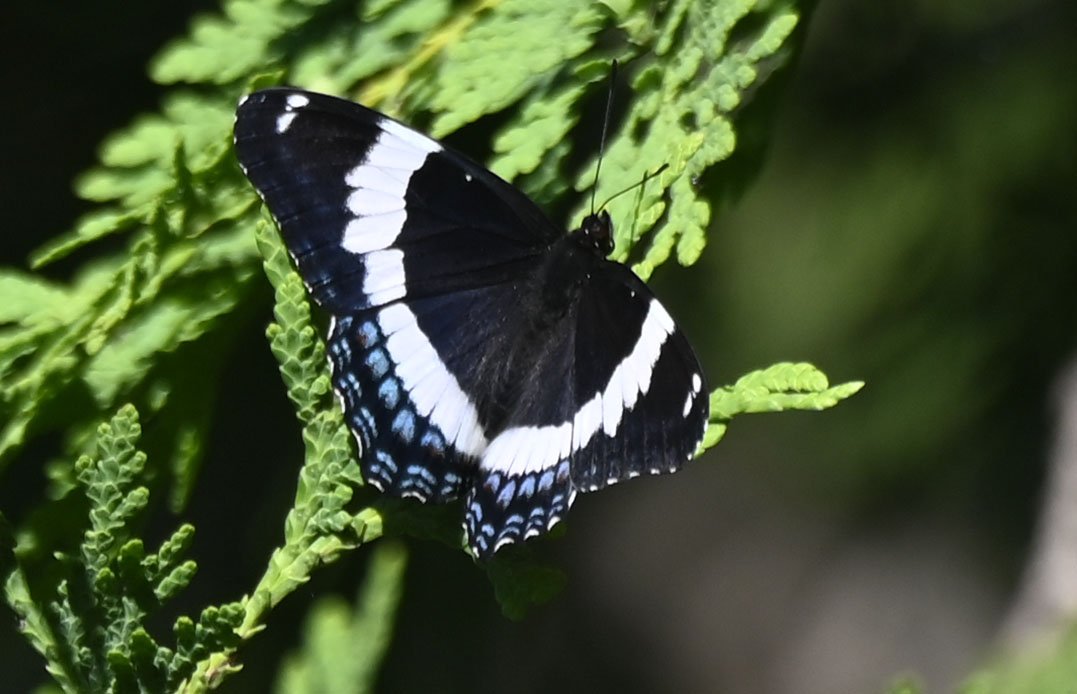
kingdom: Animalia
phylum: Arthropoda
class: Insecta
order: Lepidoptera
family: Nymphalidae
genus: Limenitis
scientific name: Limenitis arthemis
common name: Red-spotted Admiral
